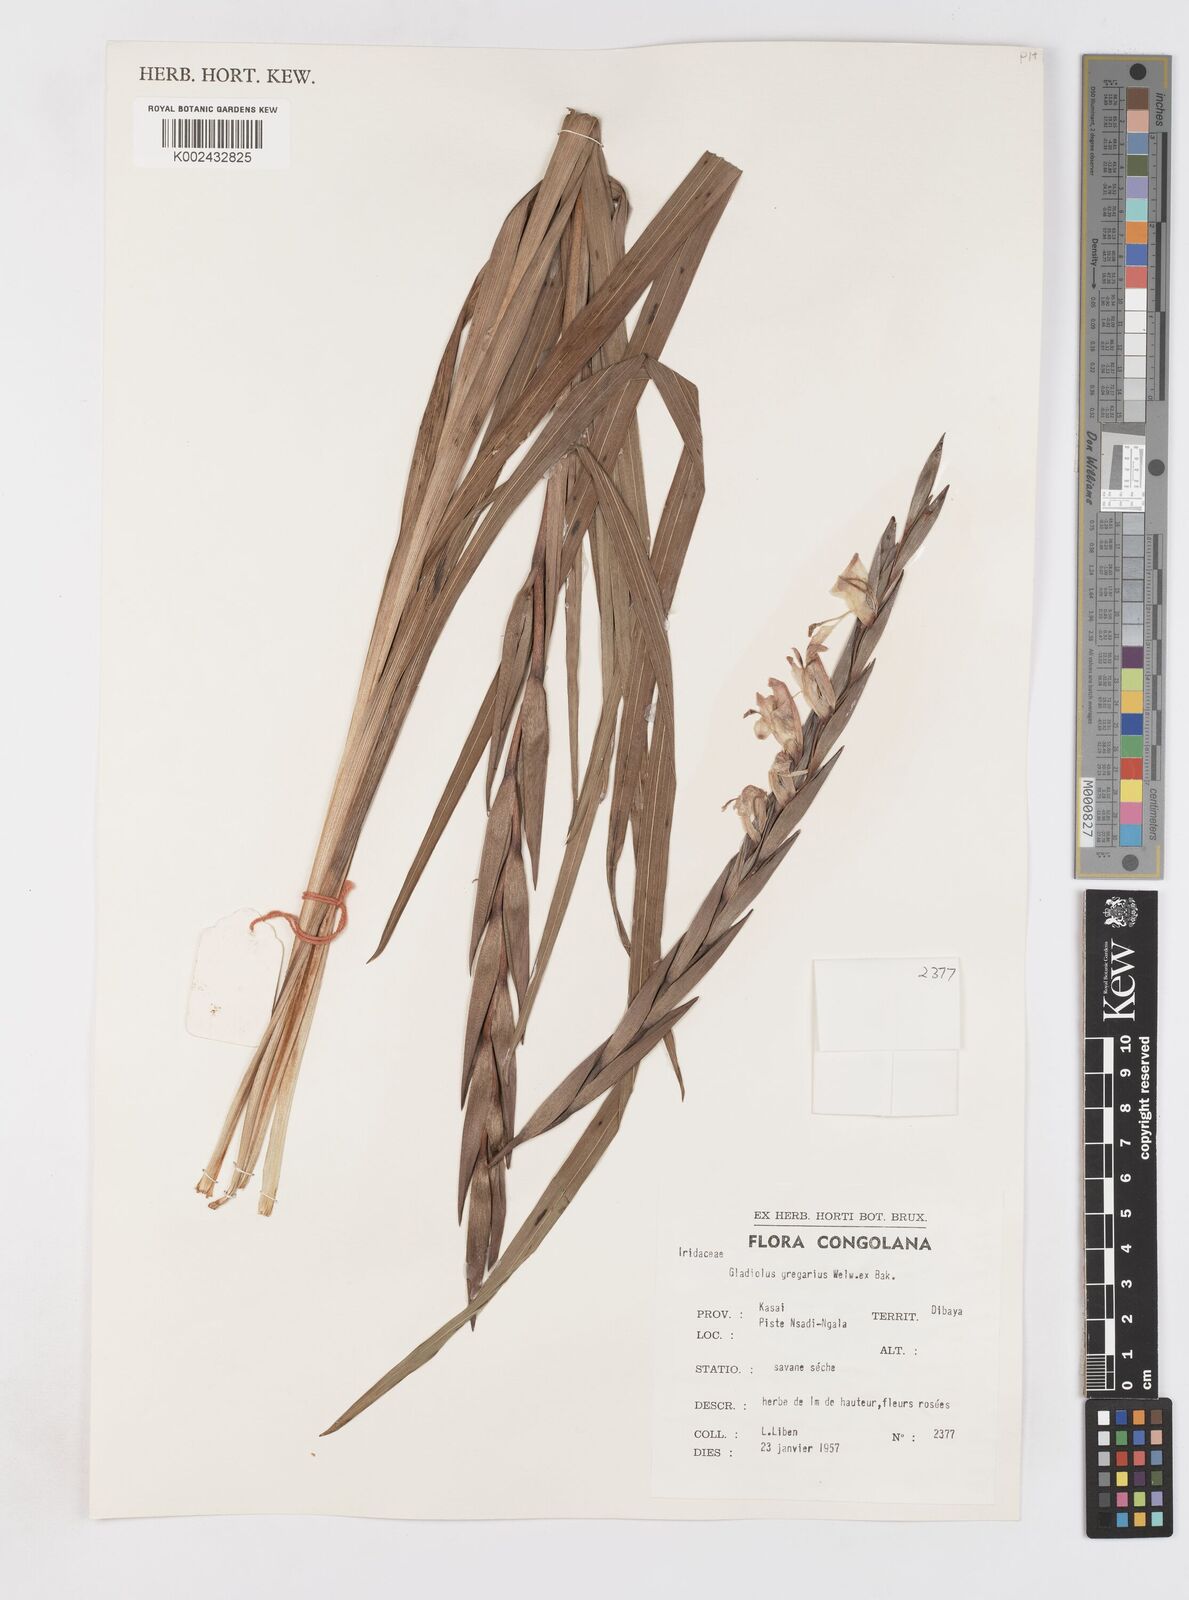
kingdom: Plantae
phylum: Tracheophyta
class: Liliopsida
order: Asparagales
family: Iridaceae
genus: Gladiolus
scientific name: Gladiolus gregarius
